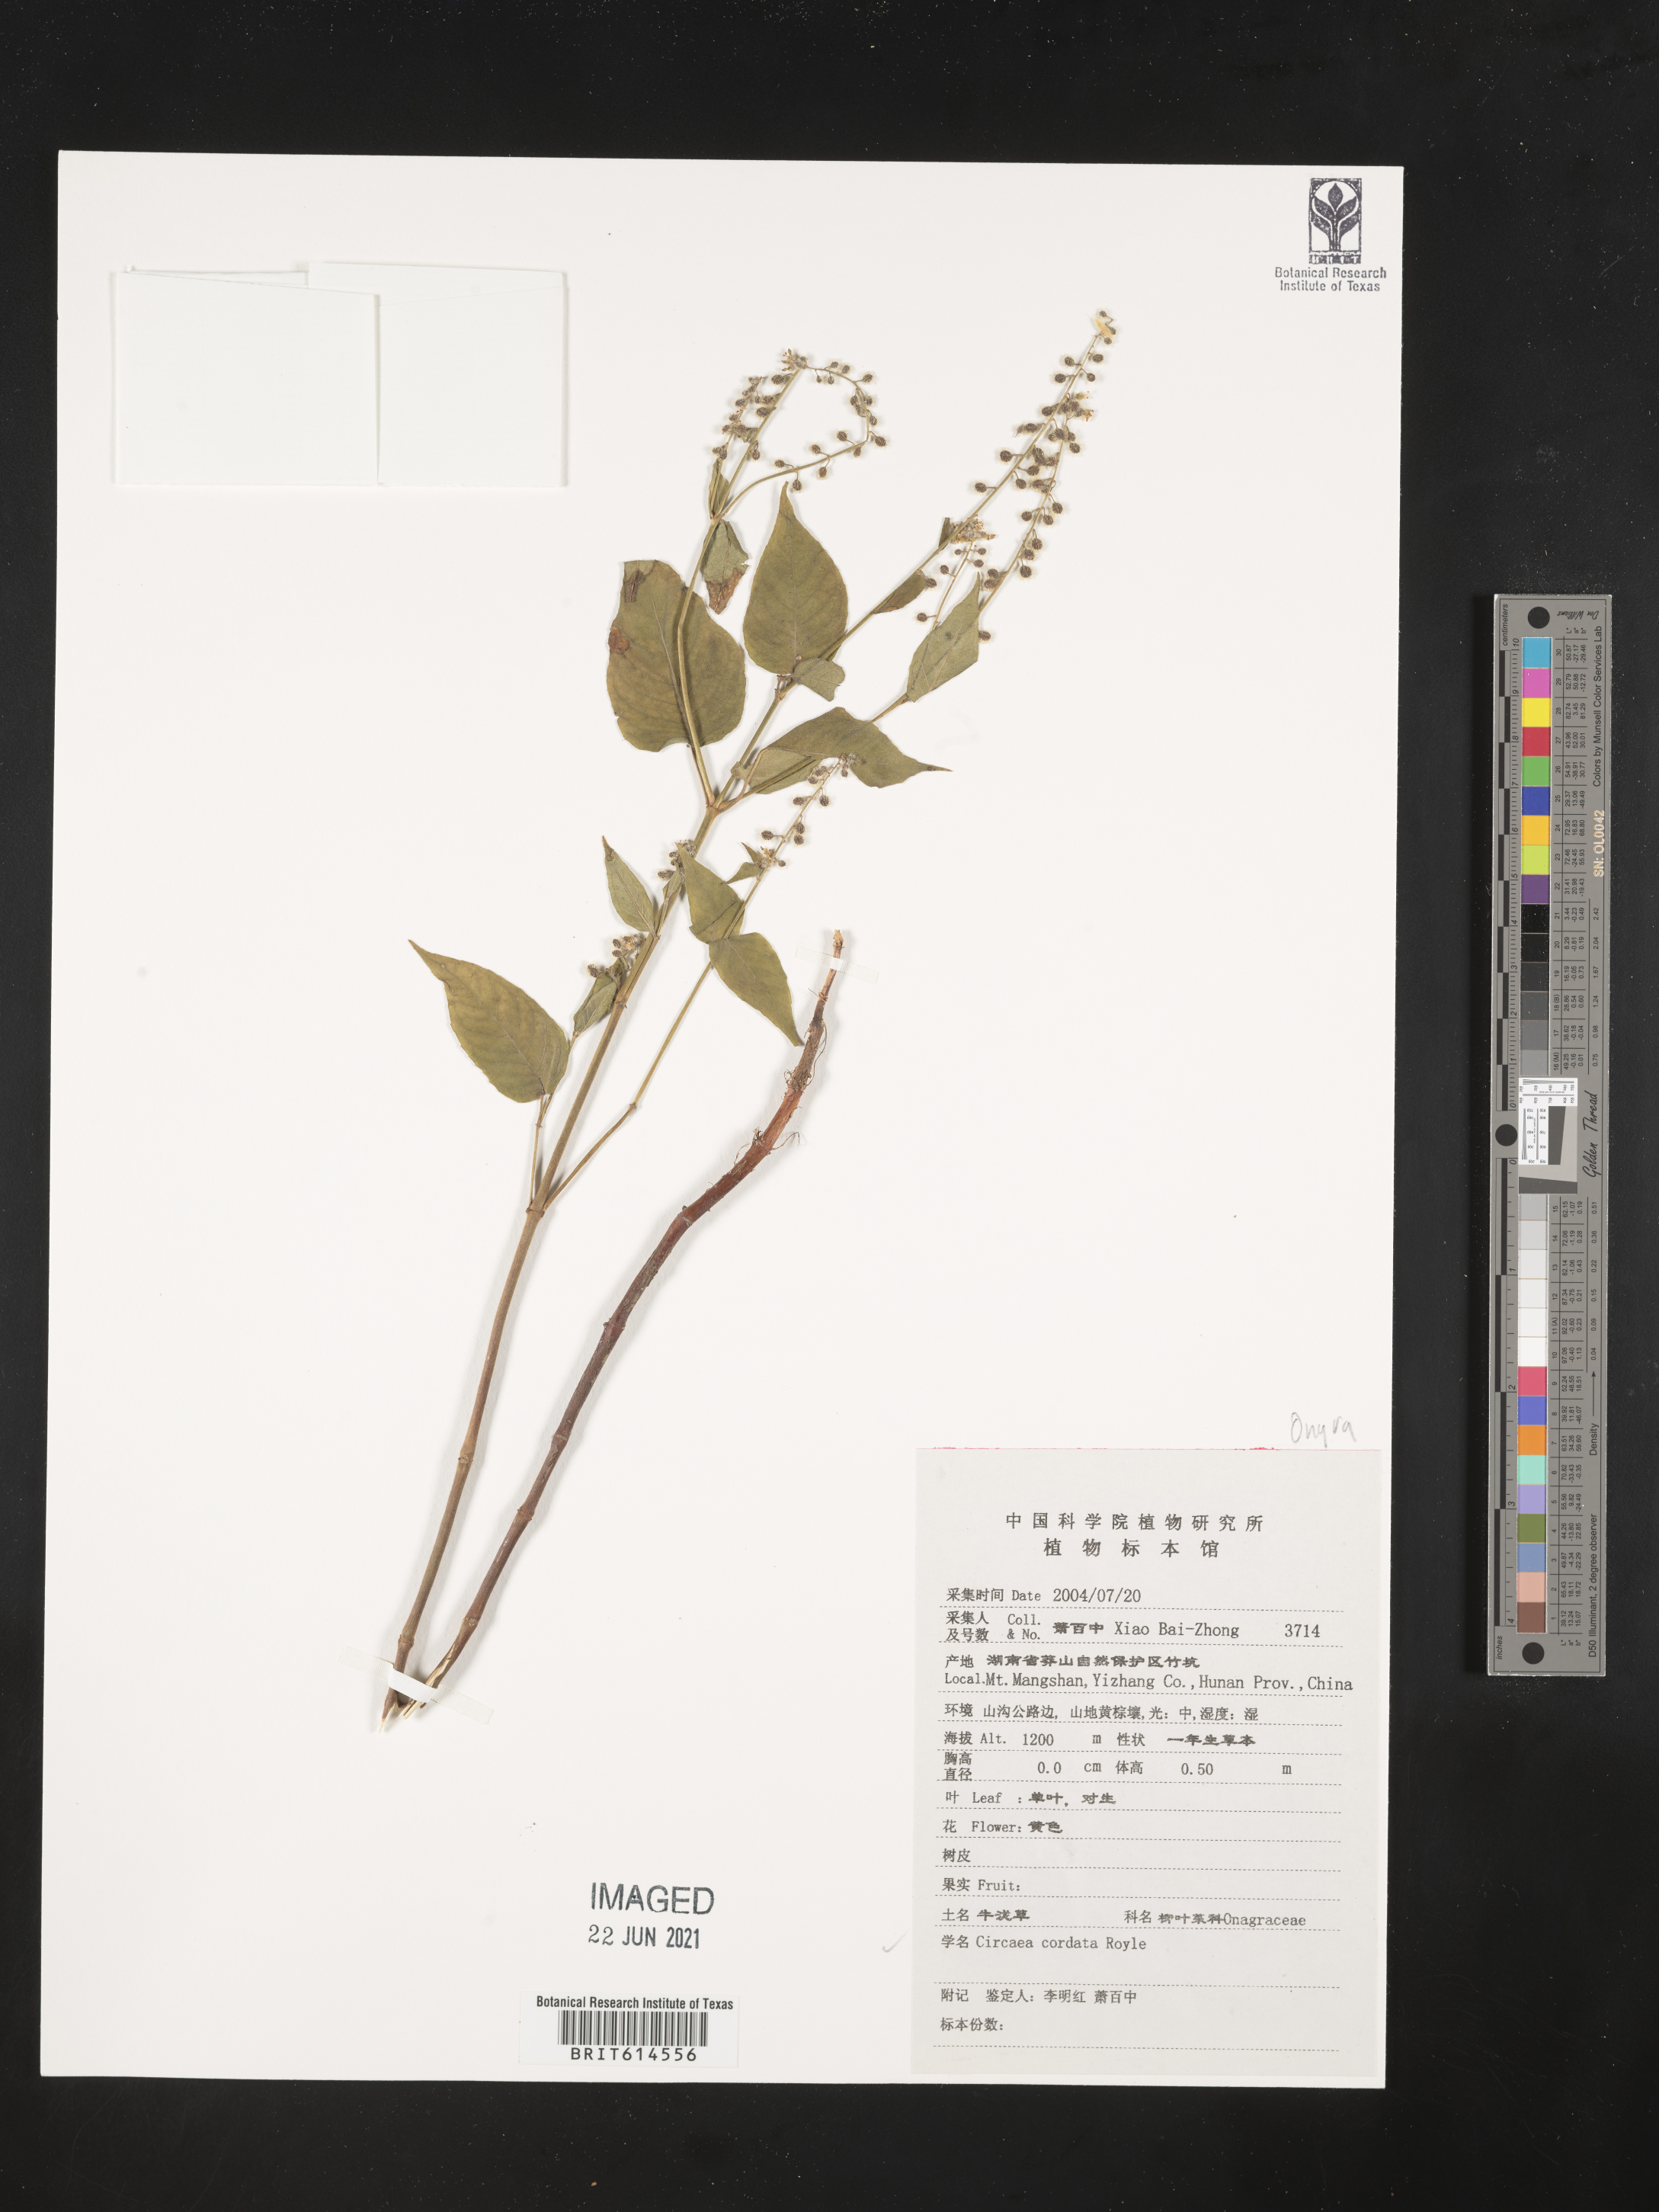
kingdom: Plantae
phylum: Tracheophyta
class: Magnoliopsida
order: Myrtales
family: Onagraceae
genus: Circaea
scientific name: Circaea cordata
